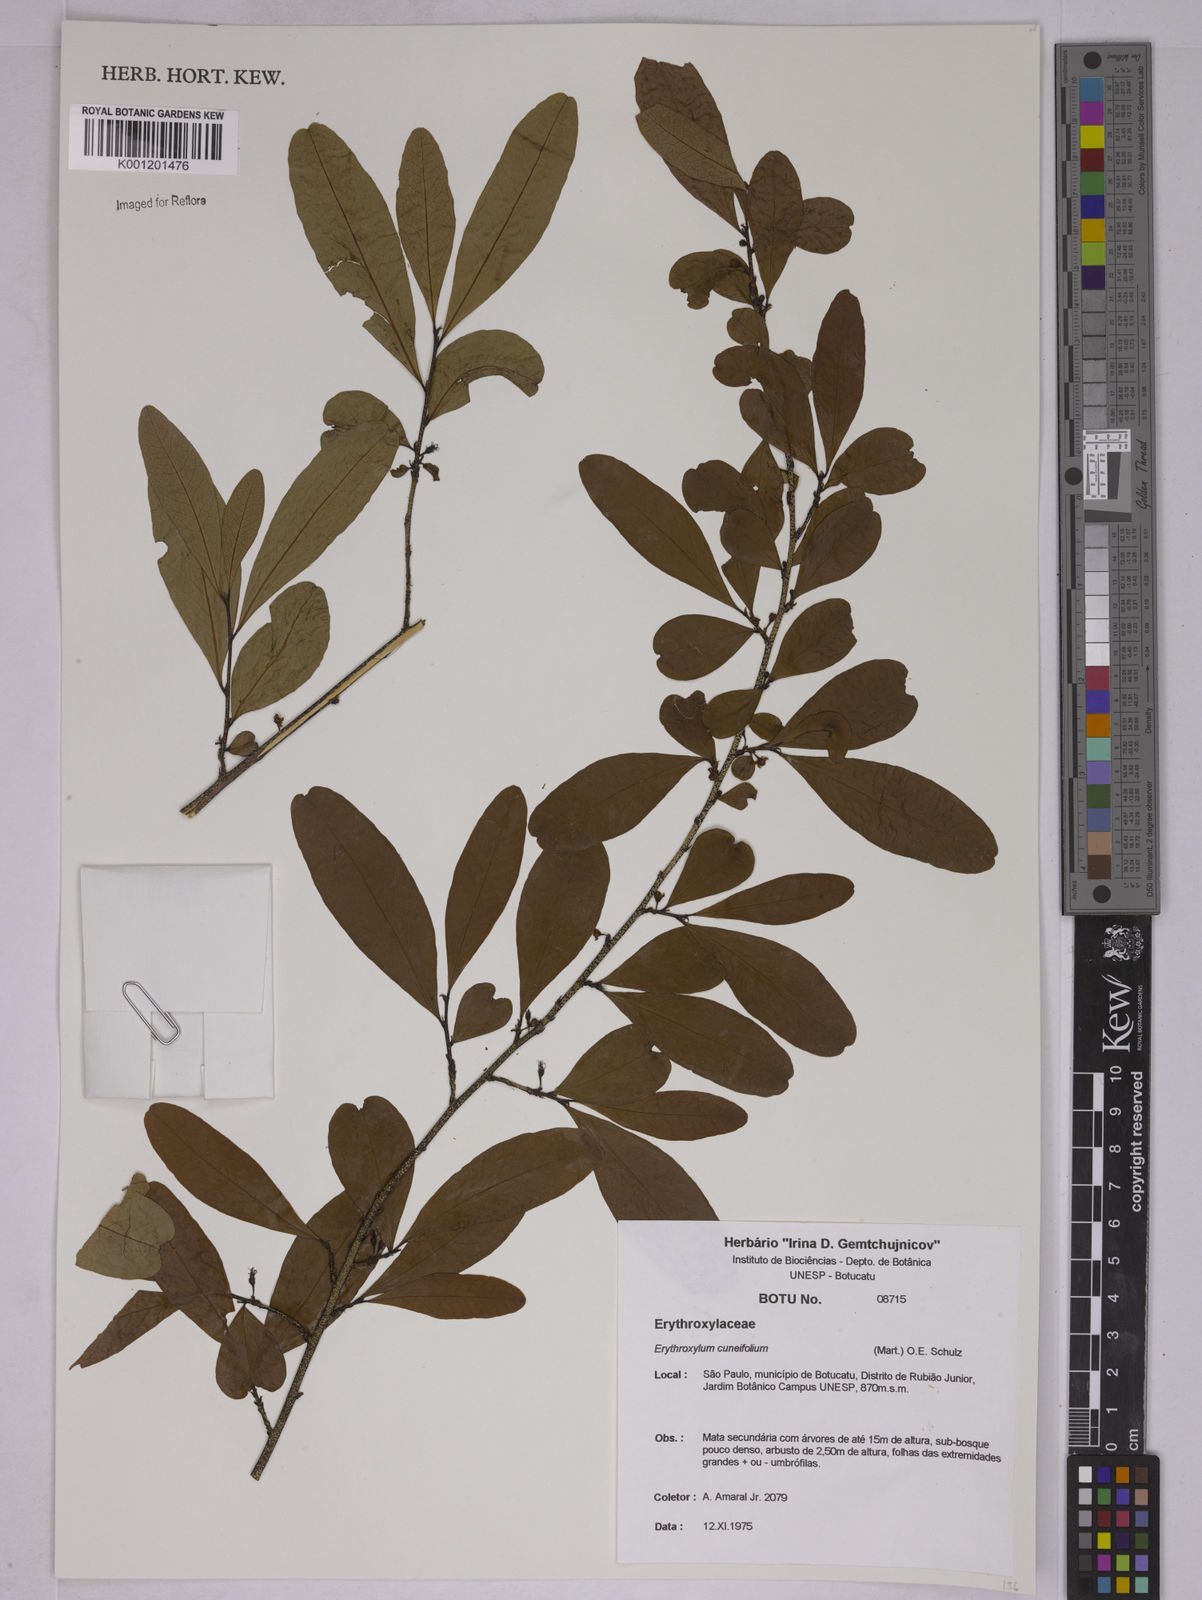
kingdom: Plantae
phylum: Tracheophyta
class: Magnoliopsida
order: Malpighiales
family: Erythroxylaceae
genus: Erythroxylum
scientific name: Erythroxylum cuneifolium
